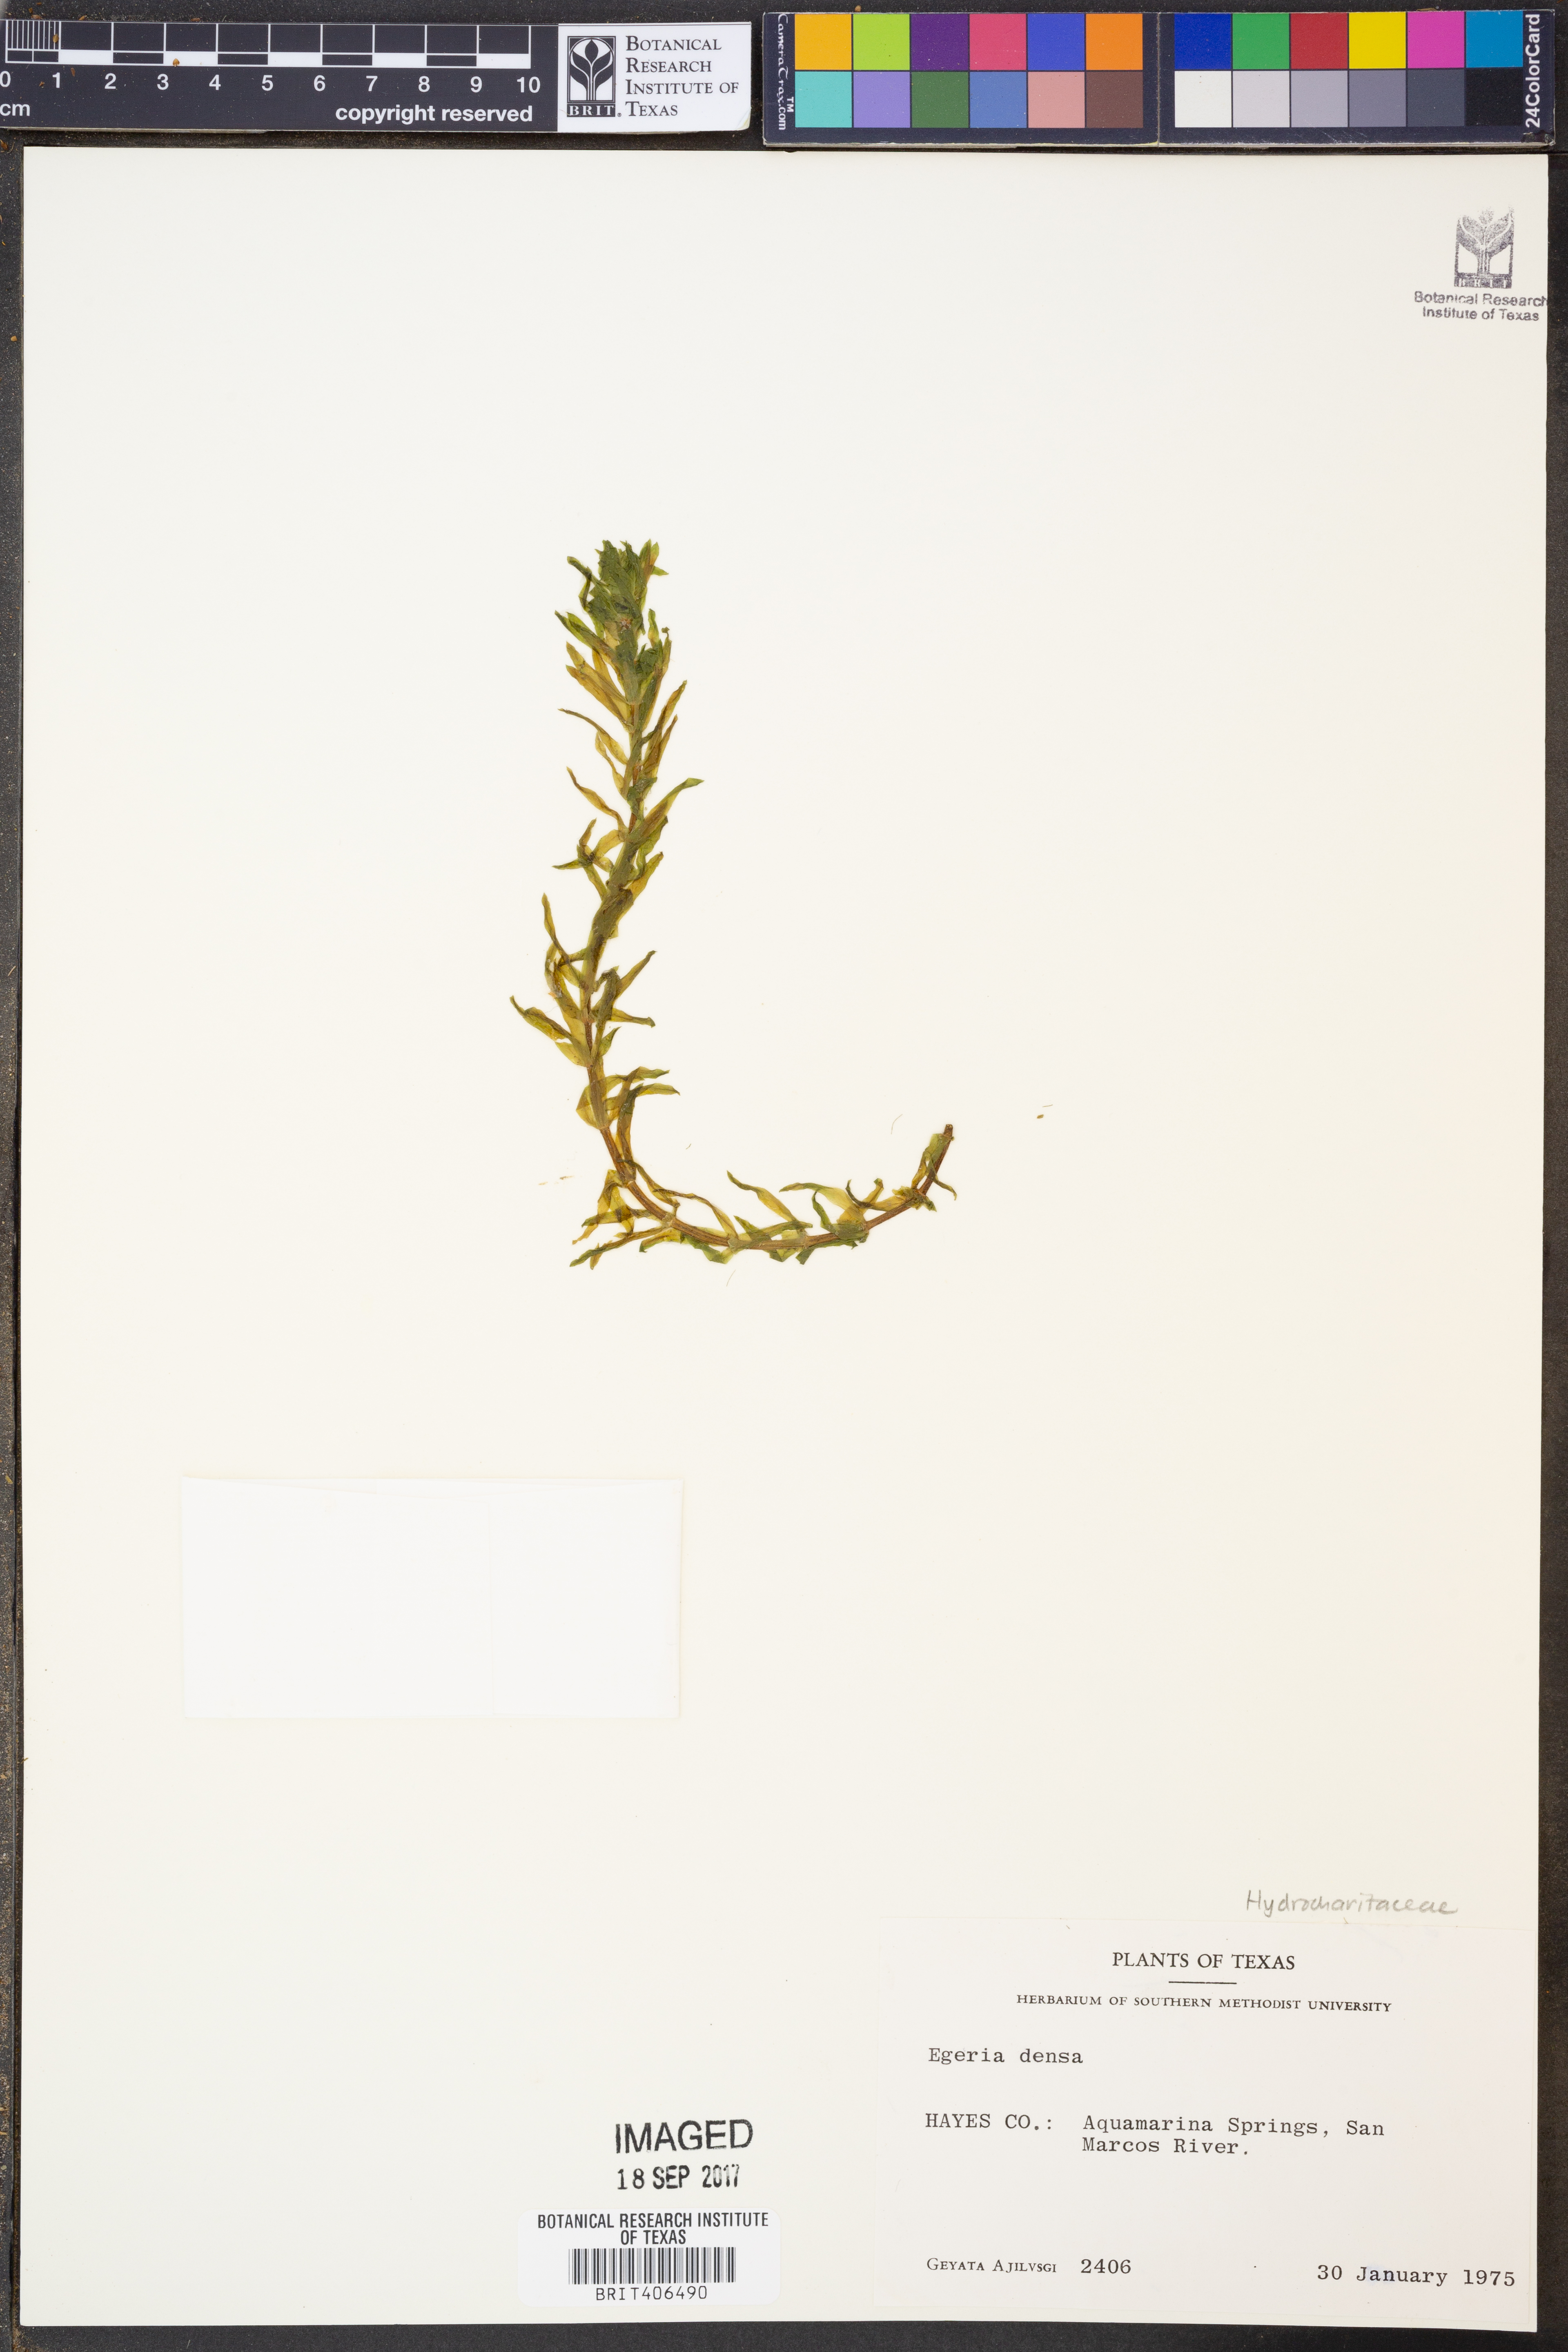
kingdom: Plantae
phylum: Tracheophyta
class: Liliopsida
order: Alismatales
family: Hydrocharitaceae
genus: Elodea
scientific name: Elodea densa
